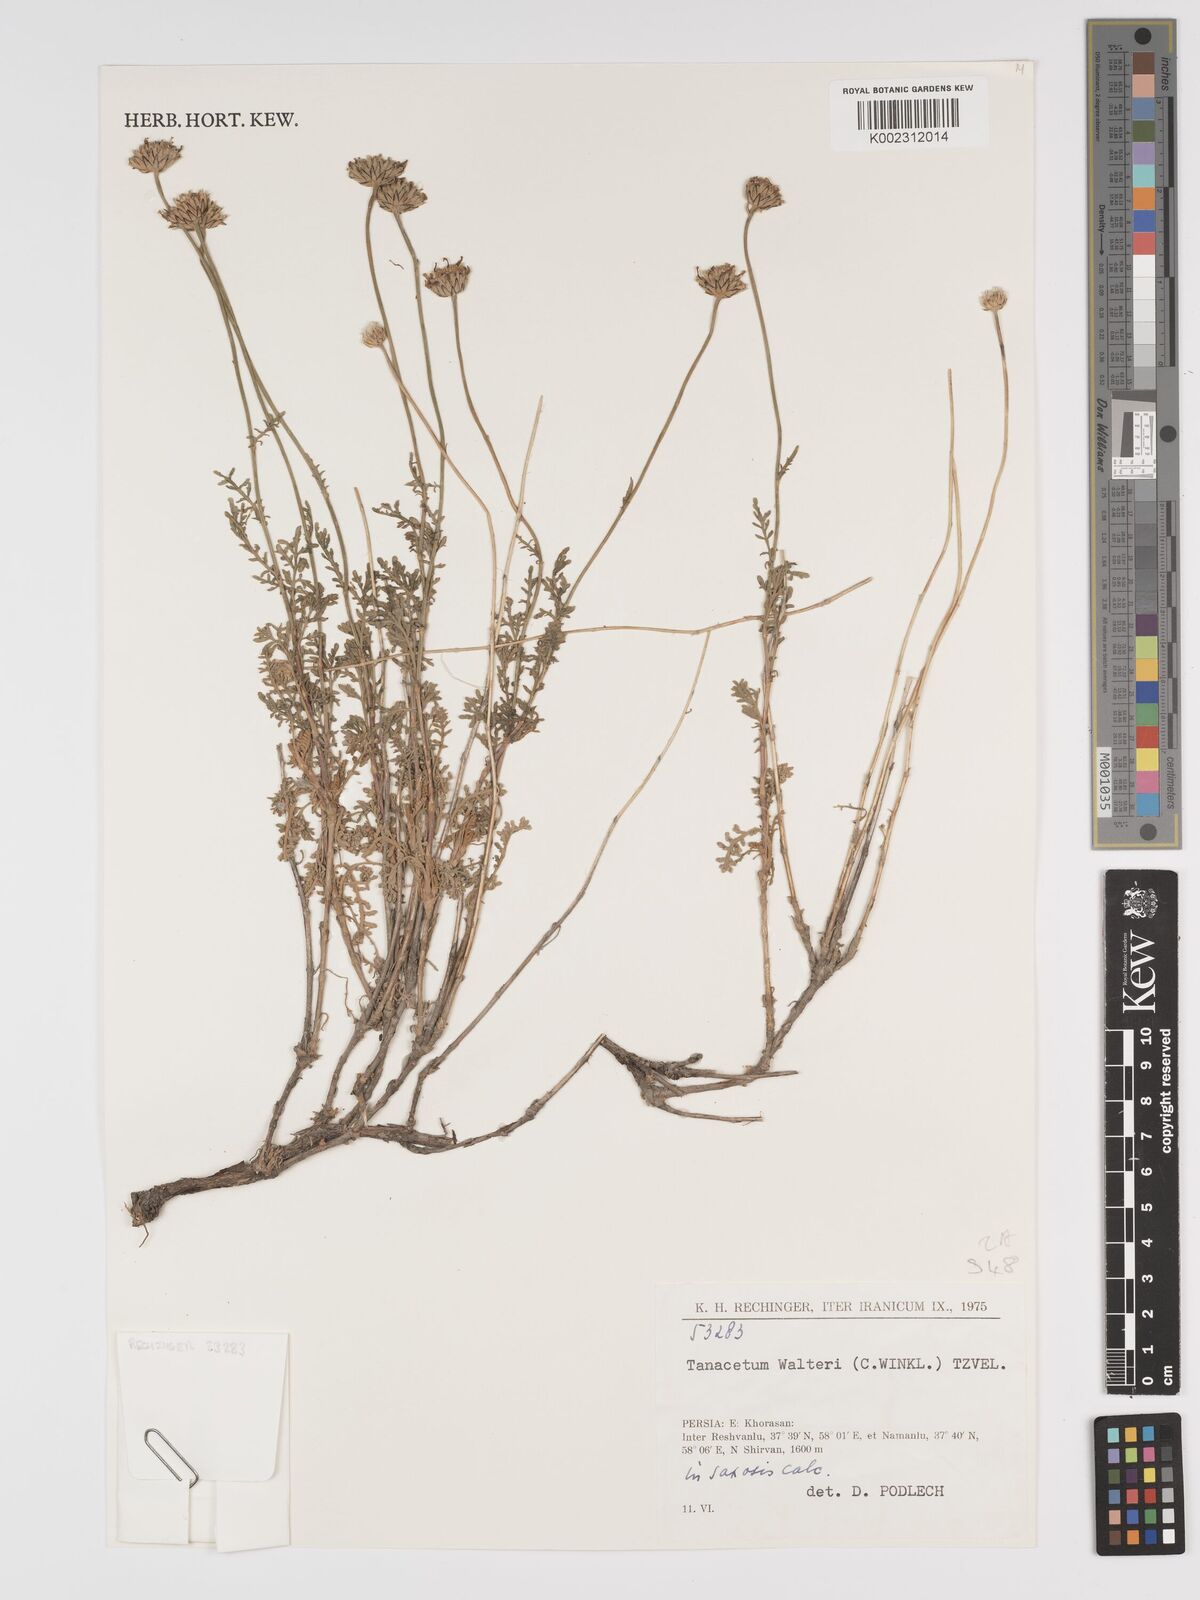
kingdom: Plantae
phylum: Tracheophyta
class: Magnoliopsida
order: Asterales
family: Asteraceae
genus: Tanacetum
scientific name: Tanacetum walteri
